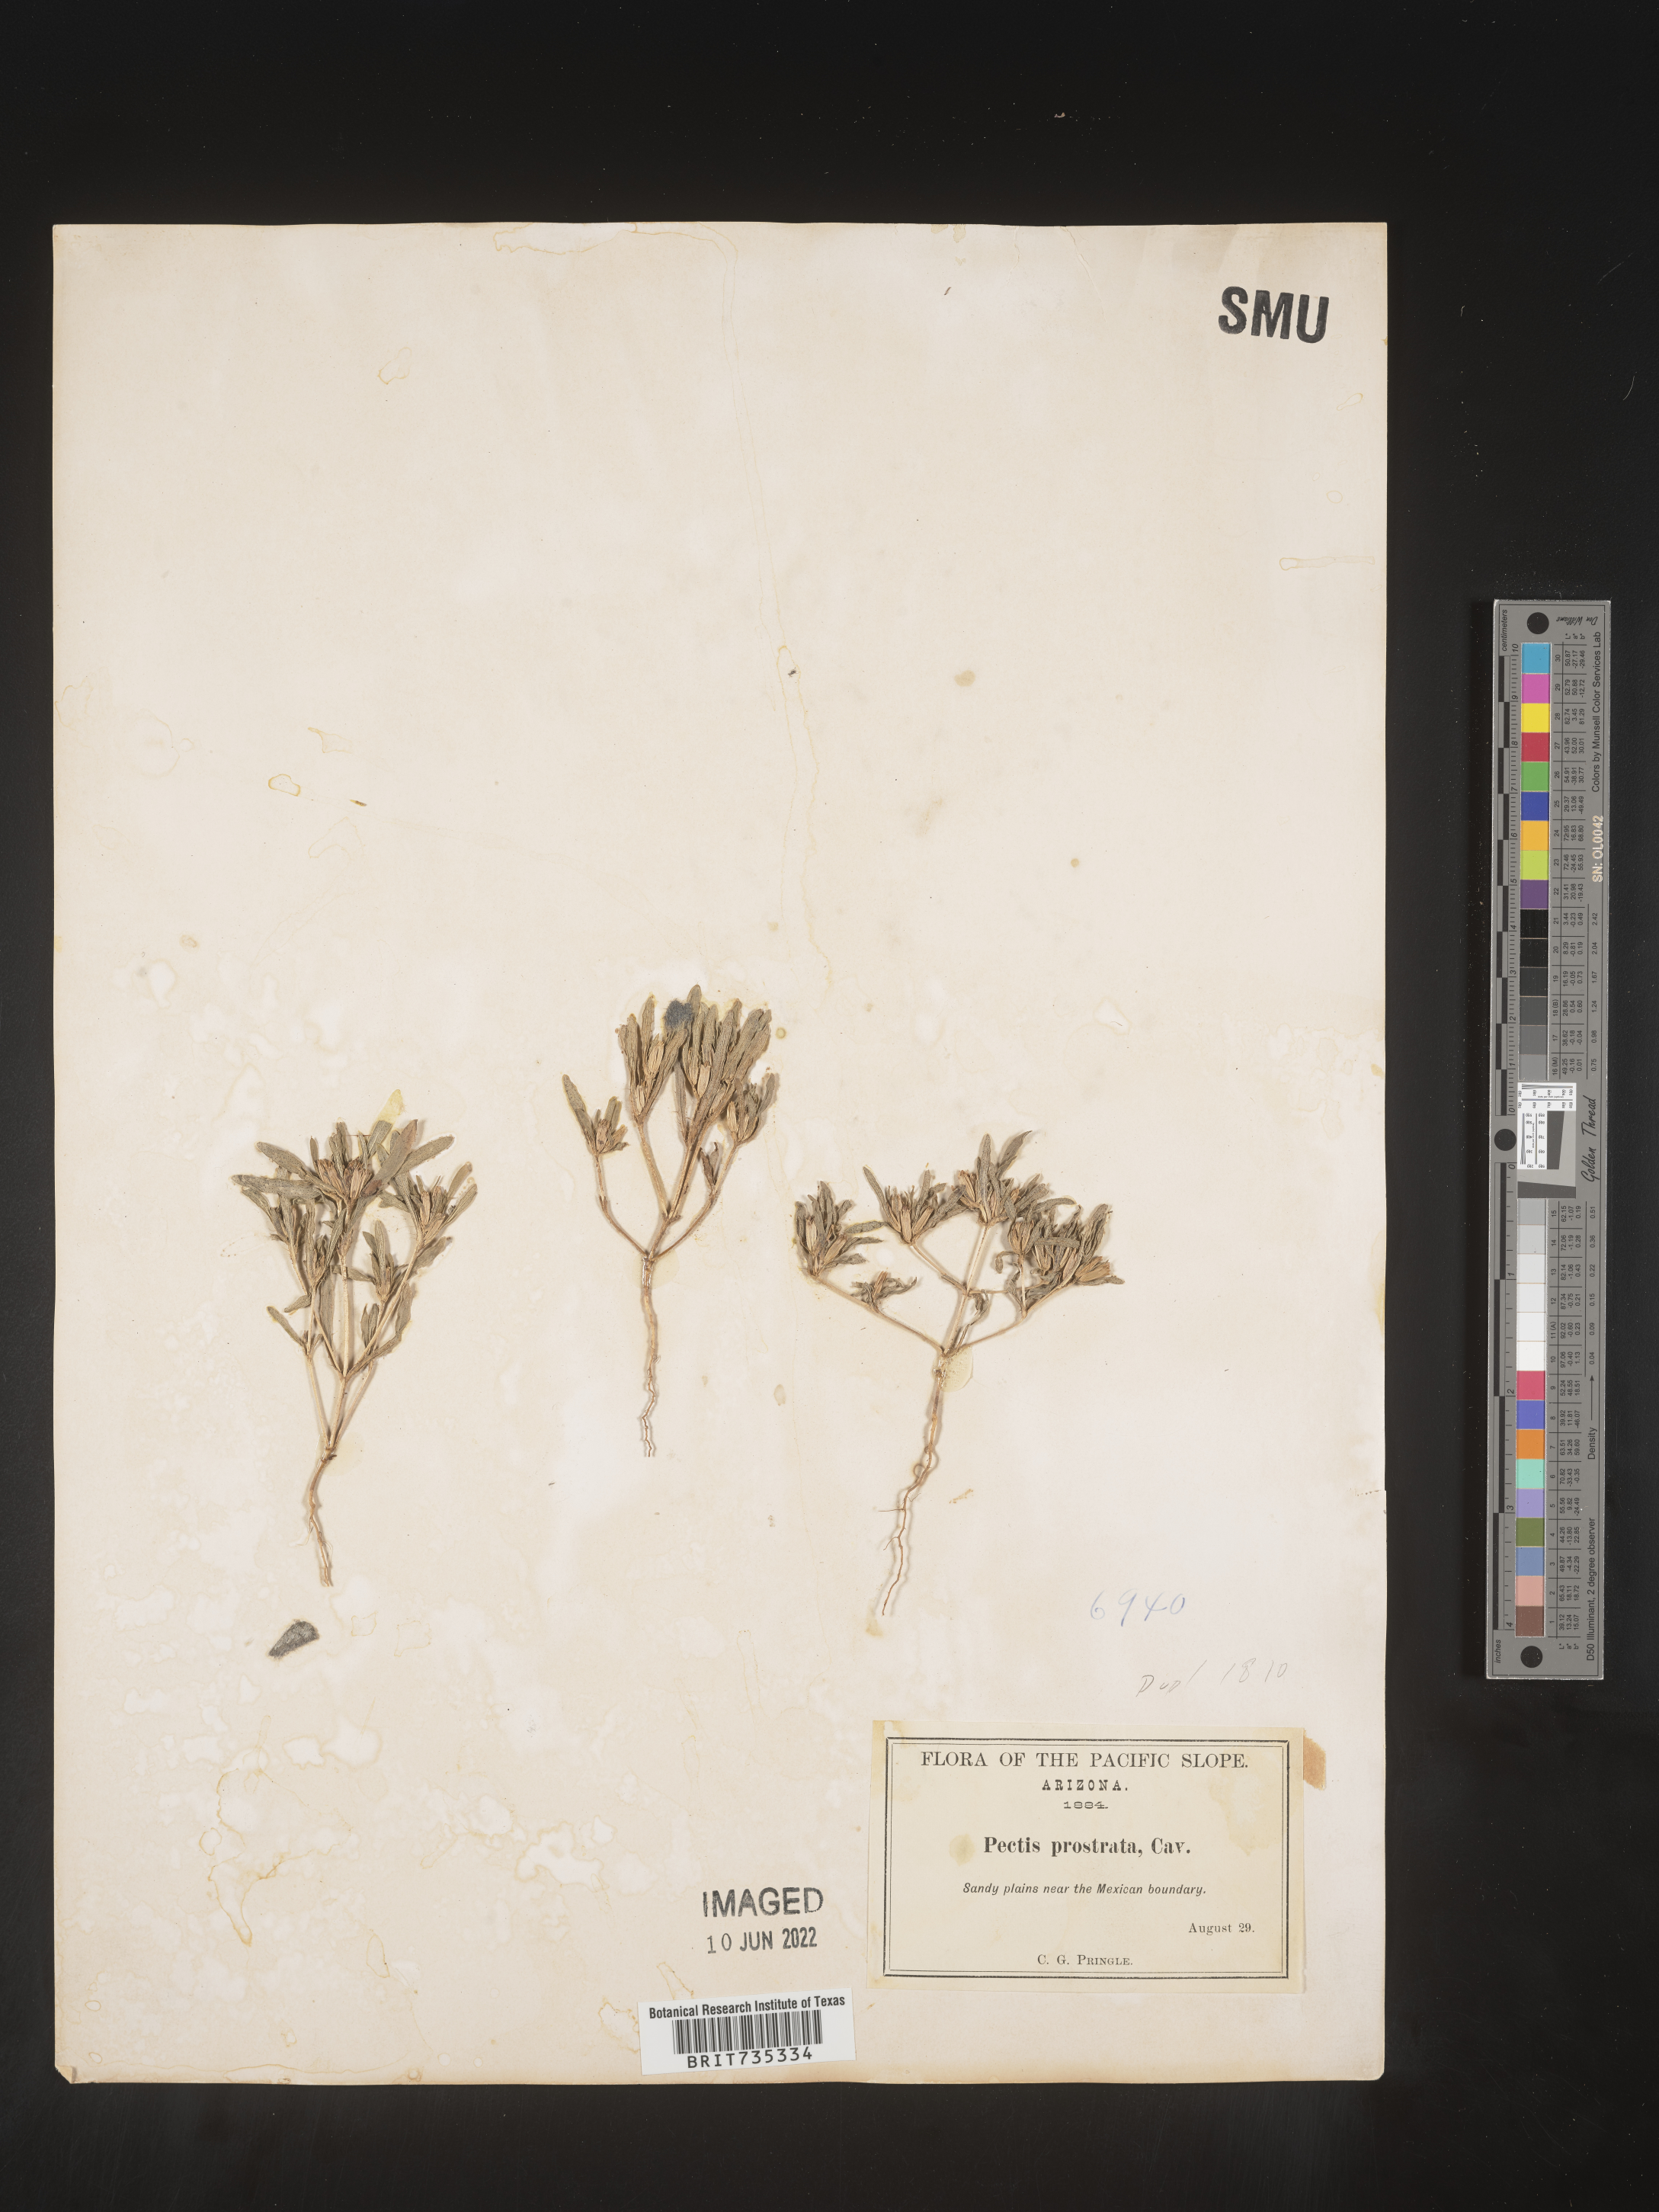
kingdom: Plantae
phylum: Tracheophyta
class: Magnoliopsida
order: Asterales
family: Asteraceae
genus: Pectis
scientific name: Pectis prostrata
